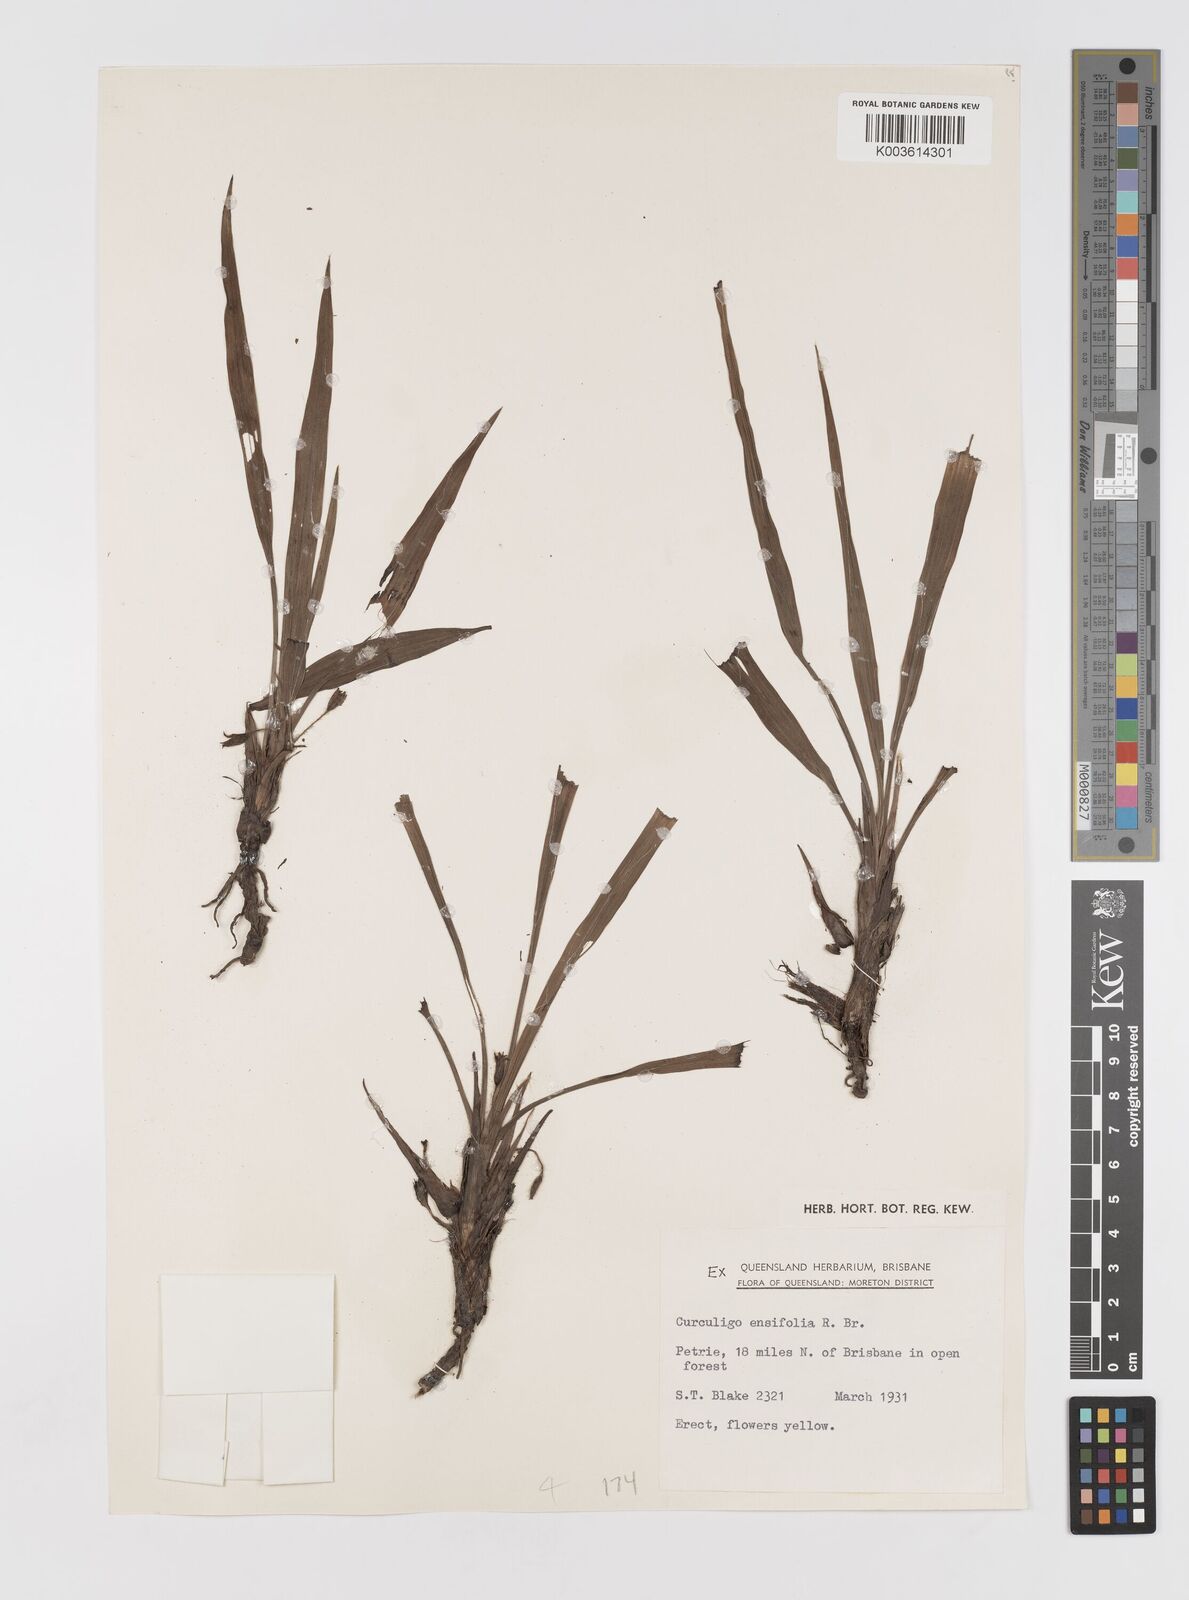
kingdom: Plantae
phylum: Tracheophyta
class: Liliopsida
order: Asparagales
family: Hypoxidaceae
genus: Curculigo
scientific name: Curculigo orchioides
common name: Golden eye-grass
